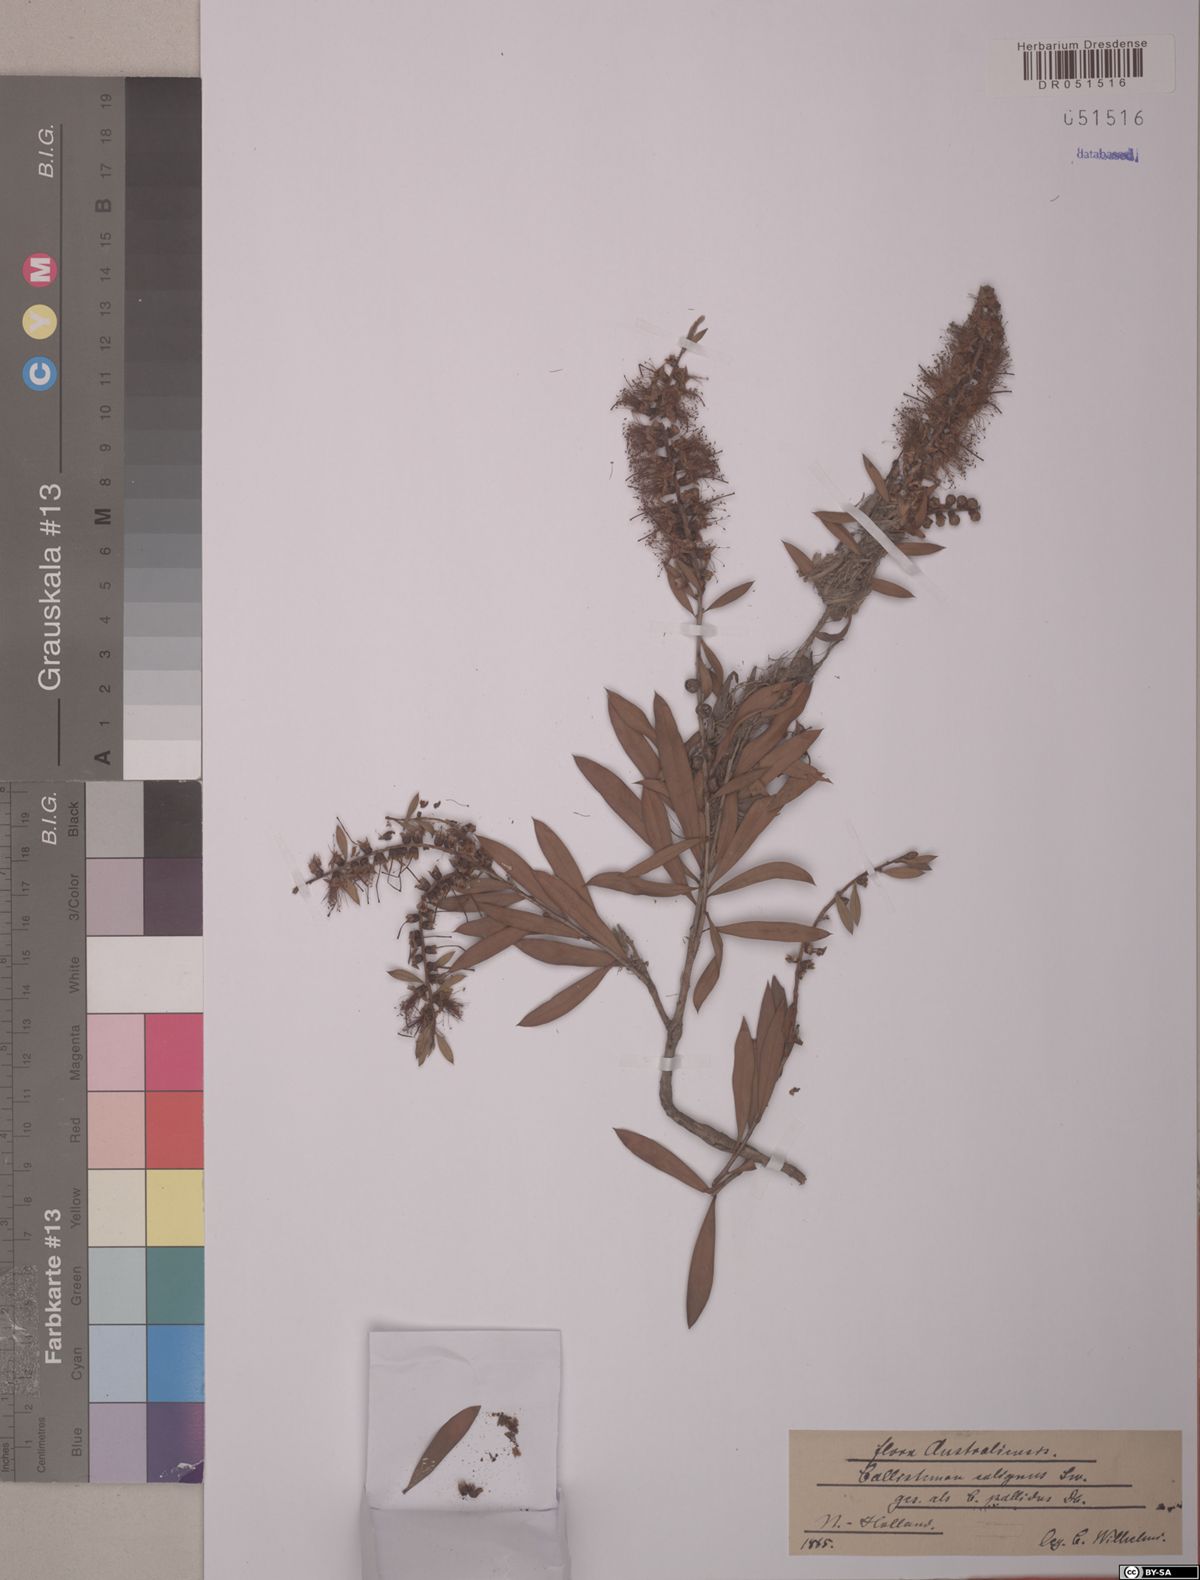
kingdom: Plantae
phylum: Tracheophyta
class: Magnoliopsida
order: Myrtales
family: Myrtaceae
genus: Callistemon
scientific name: Callistemon salignus
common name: White bottlebrush
